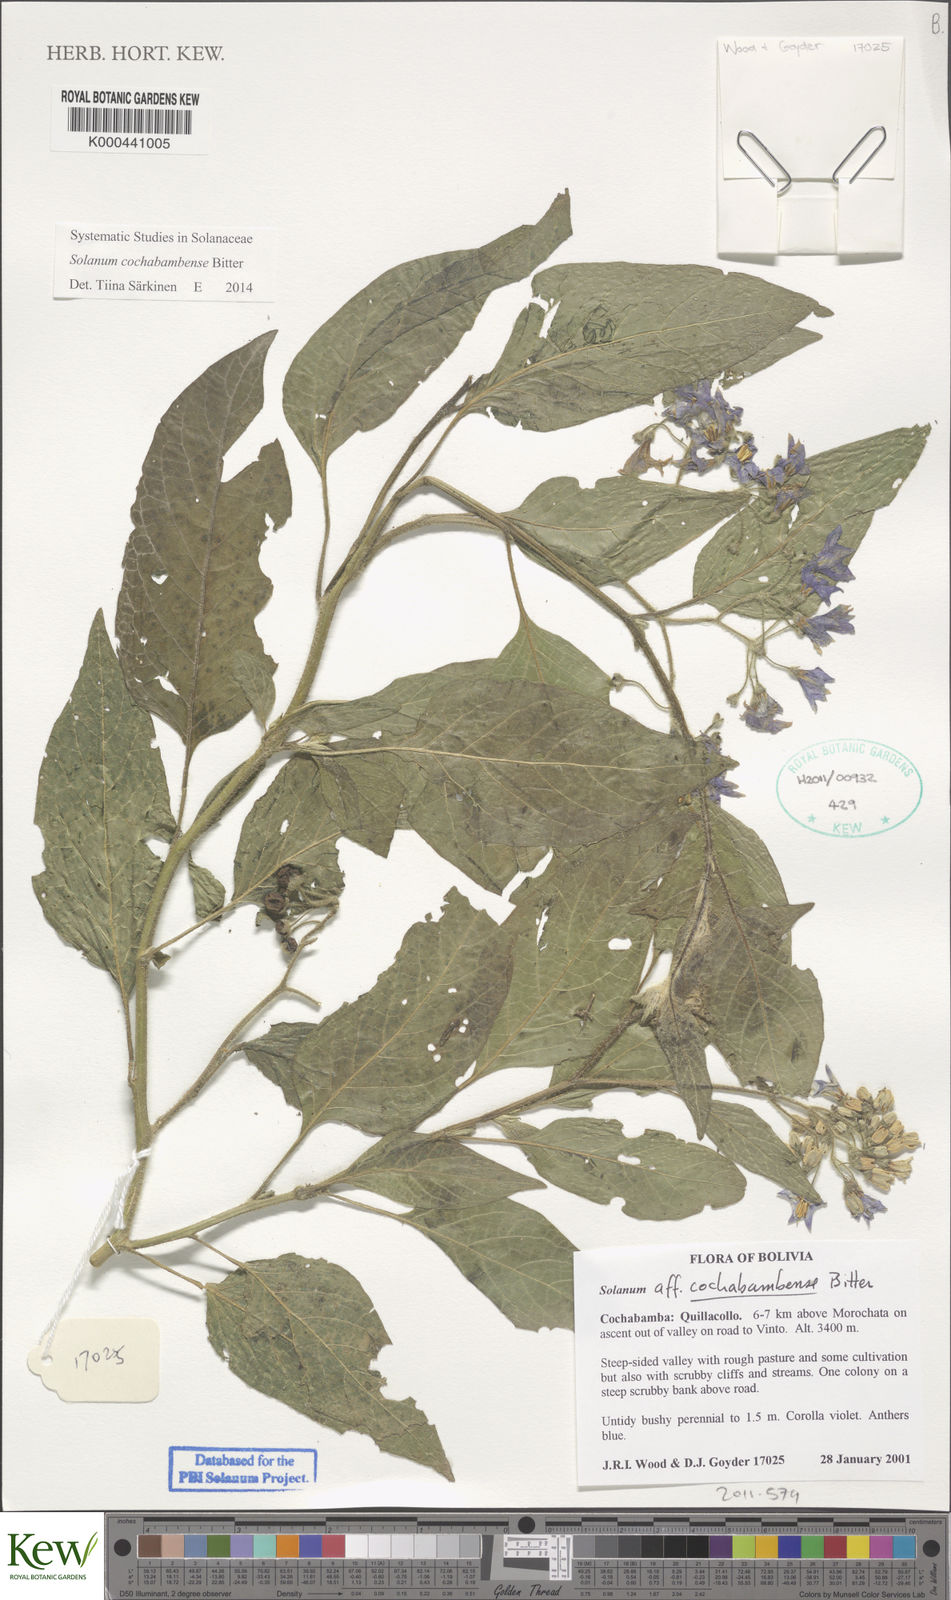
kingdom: Plantae
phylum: Tracheophyta
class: Magnoliopsida
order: Solanales
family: Solanaceae
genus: Solanum
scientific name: Solanum probolospermum
